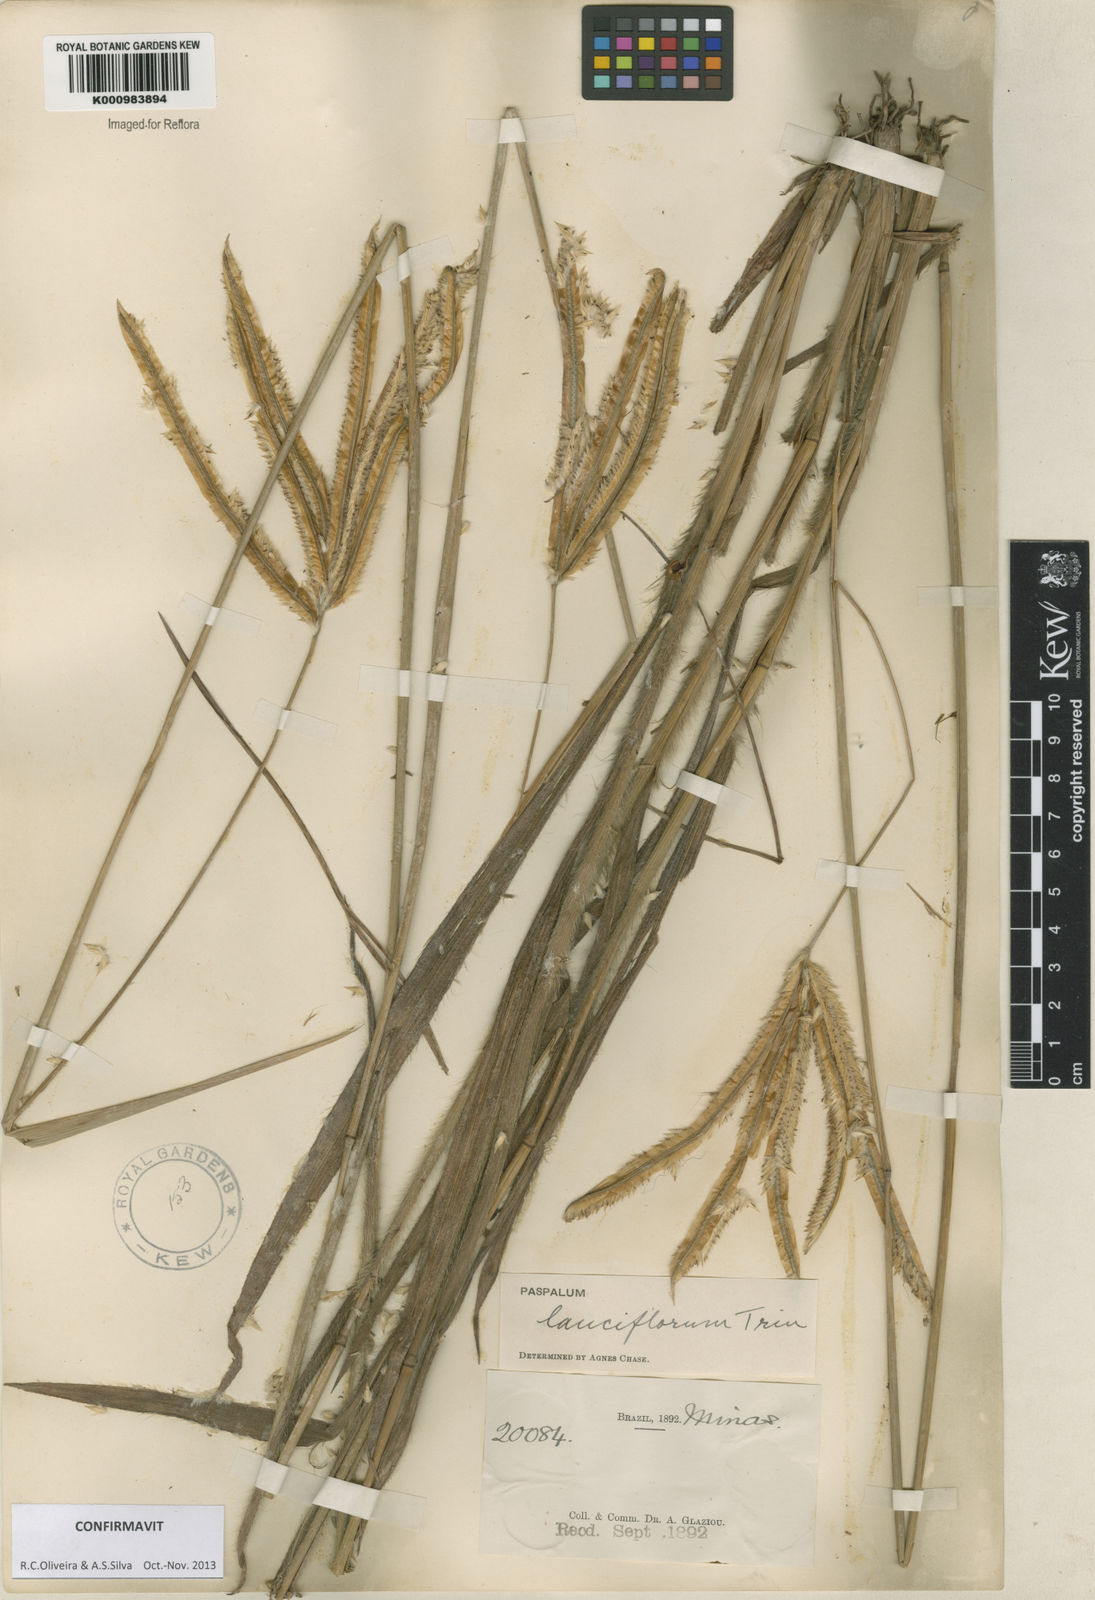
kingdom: Plantae
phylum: Tracheophyta
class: Liliopsida
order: Poales
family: Poaceae
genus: Paspalum
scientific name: Paspalum
